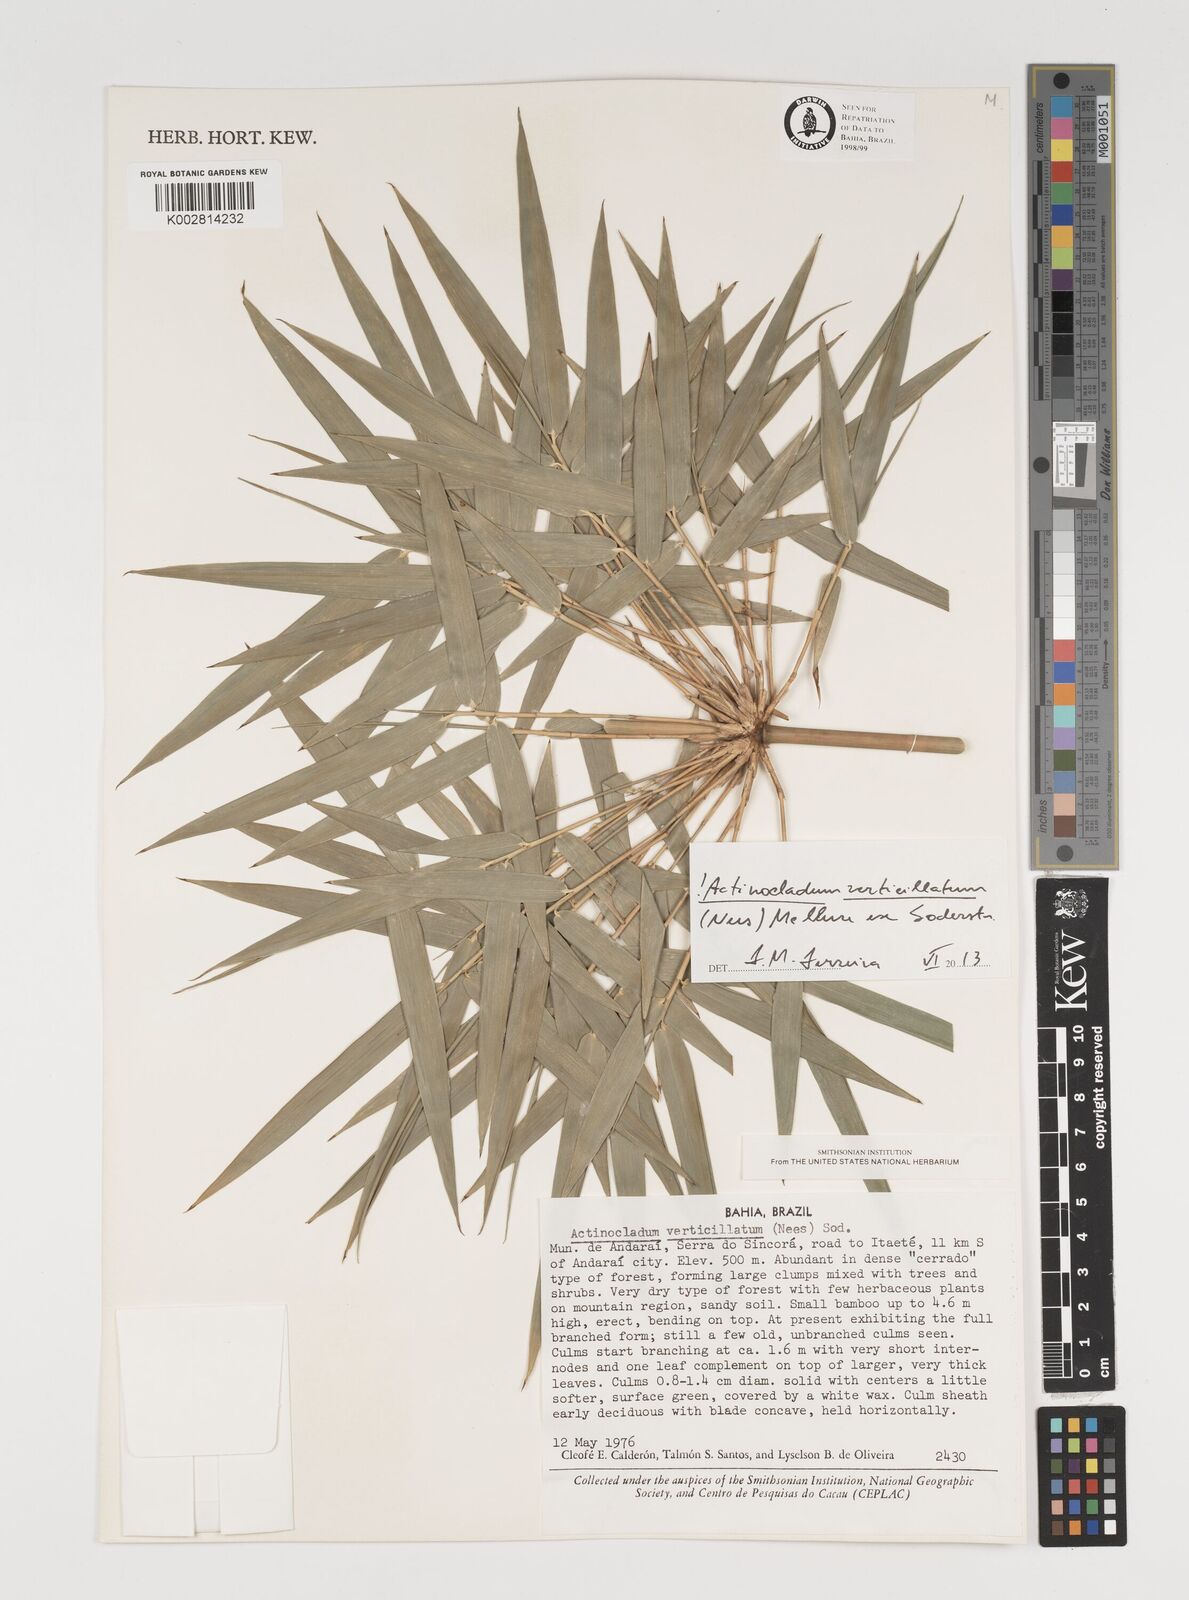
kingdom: Plantae
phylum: Tracheophyta
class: Liliopsida
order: Poales
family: Poaceae
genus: Actinocladum
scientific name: Actinocladum verticillatum
